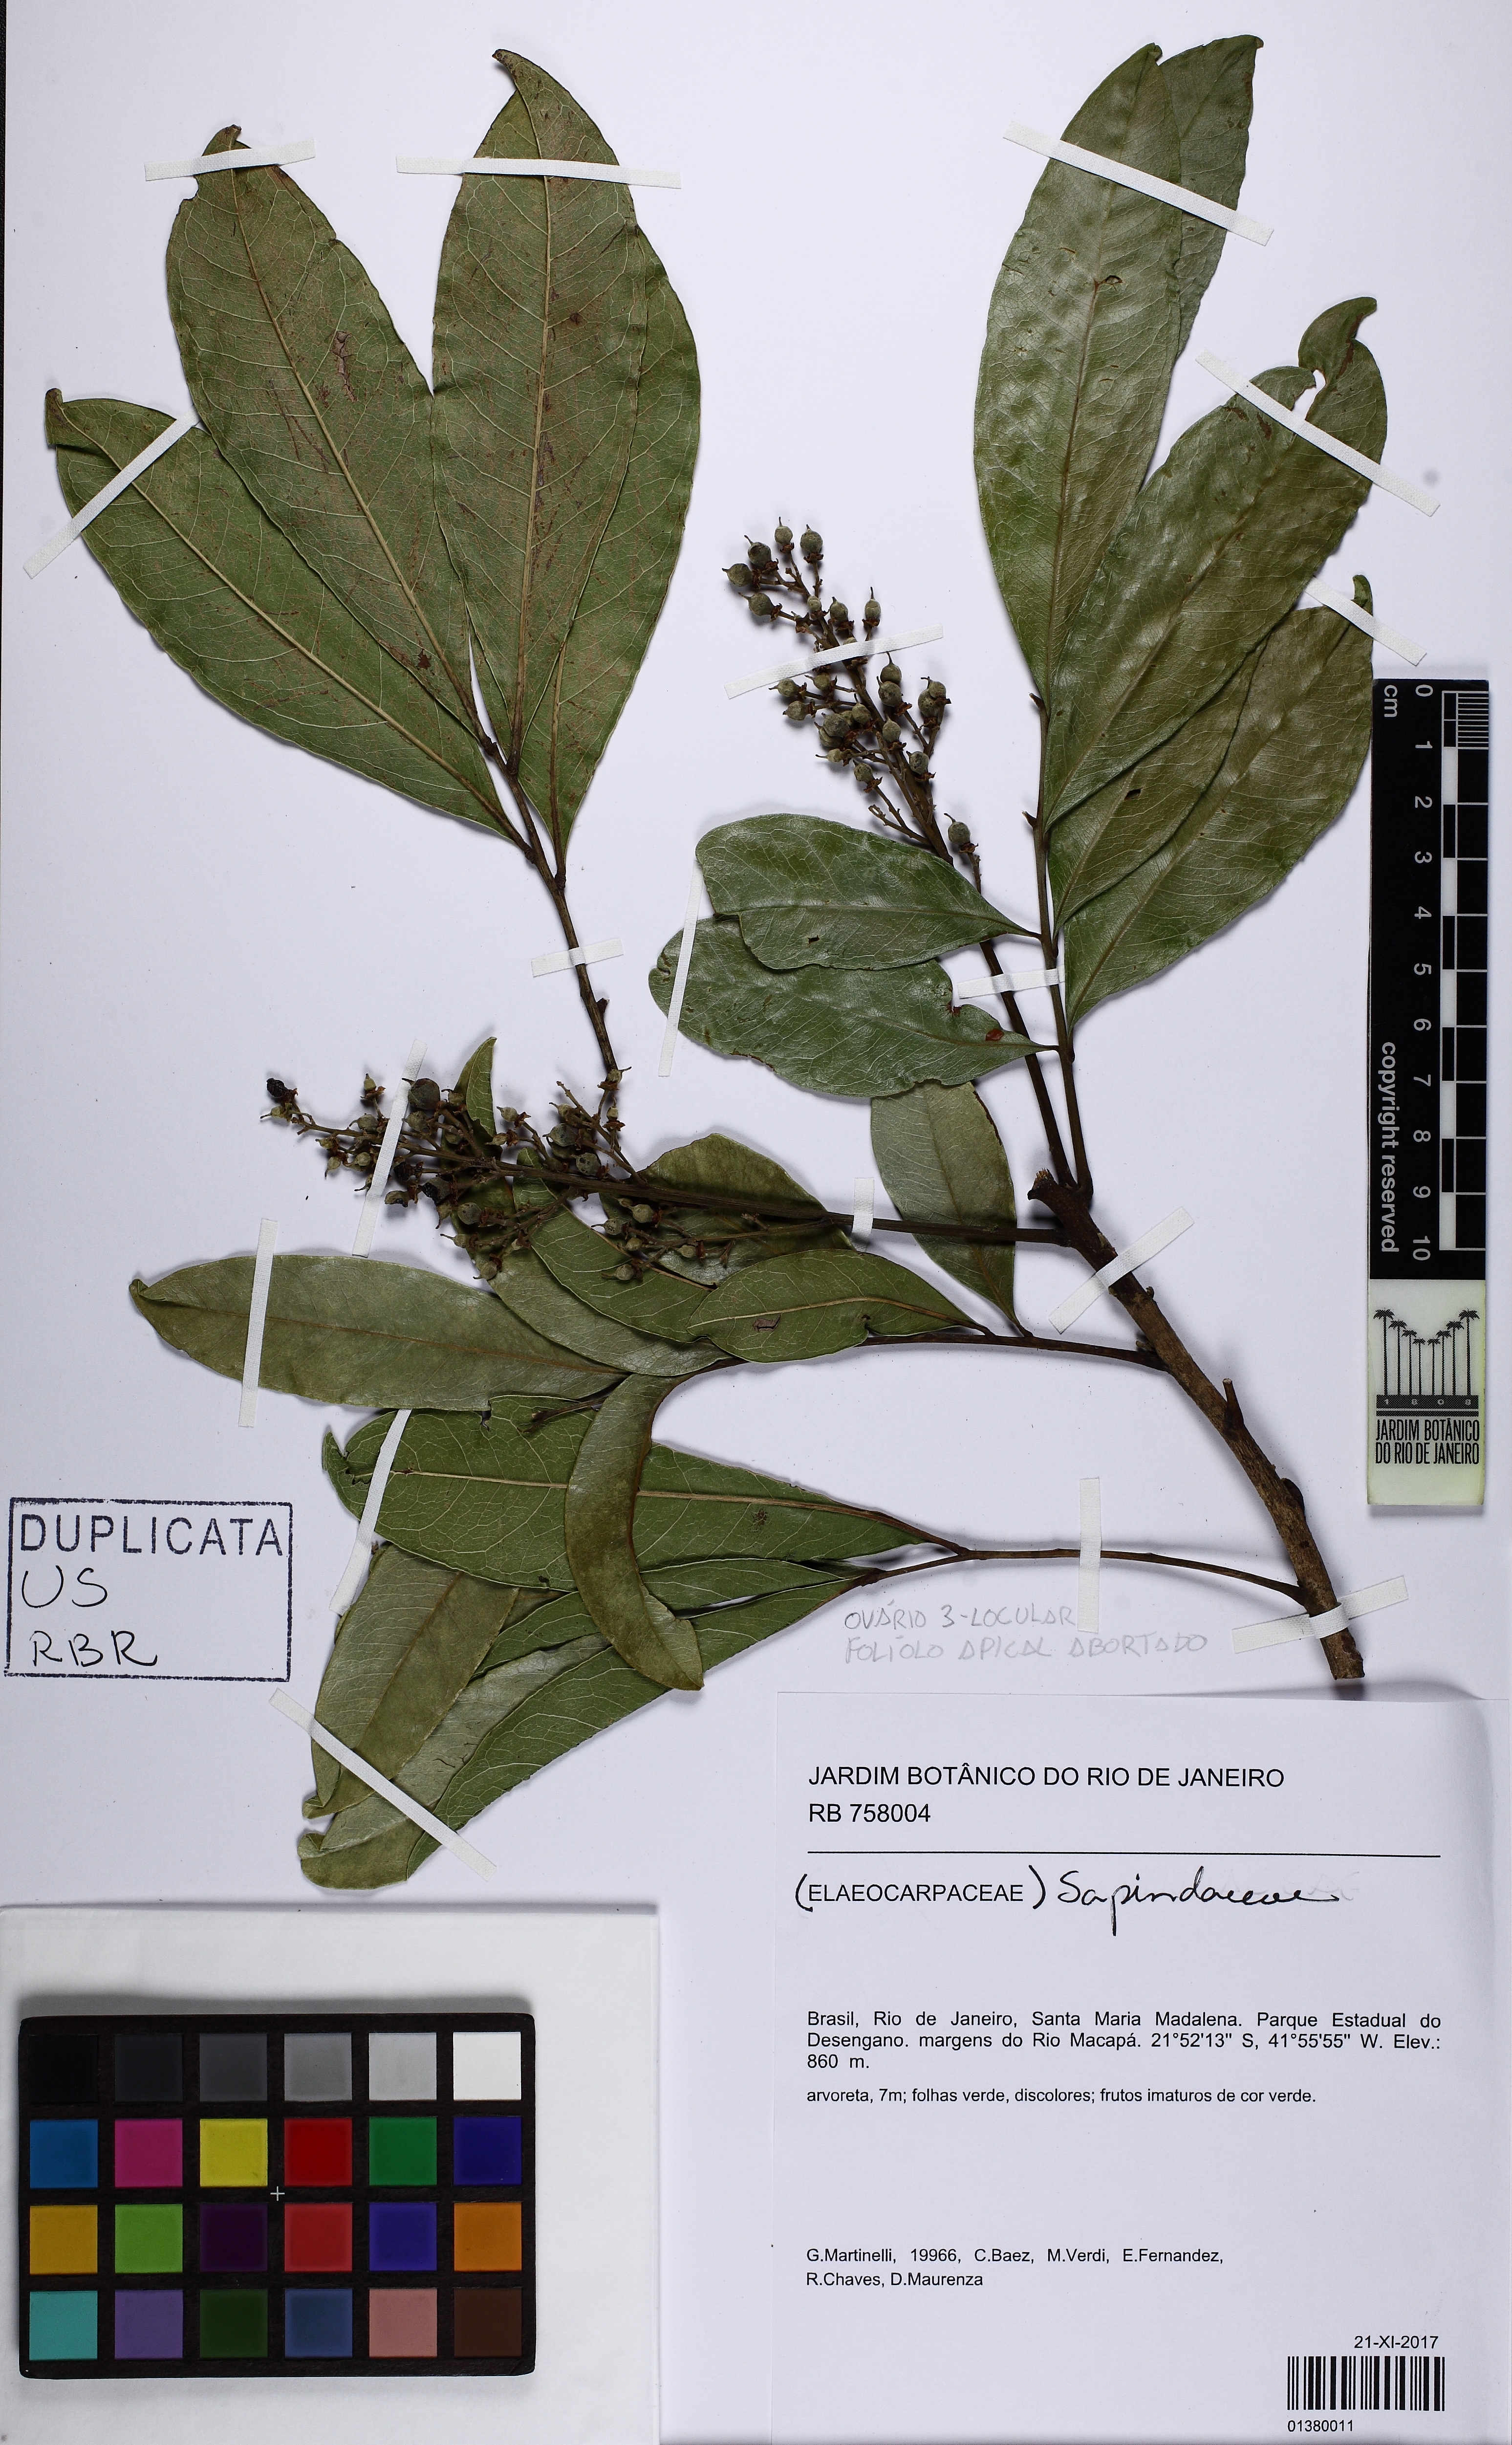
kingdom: Plantae
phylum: Tracheophyta
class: Magnoliopsida
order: Sapindales
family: Sapindaceae
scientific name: Sapindaceae
